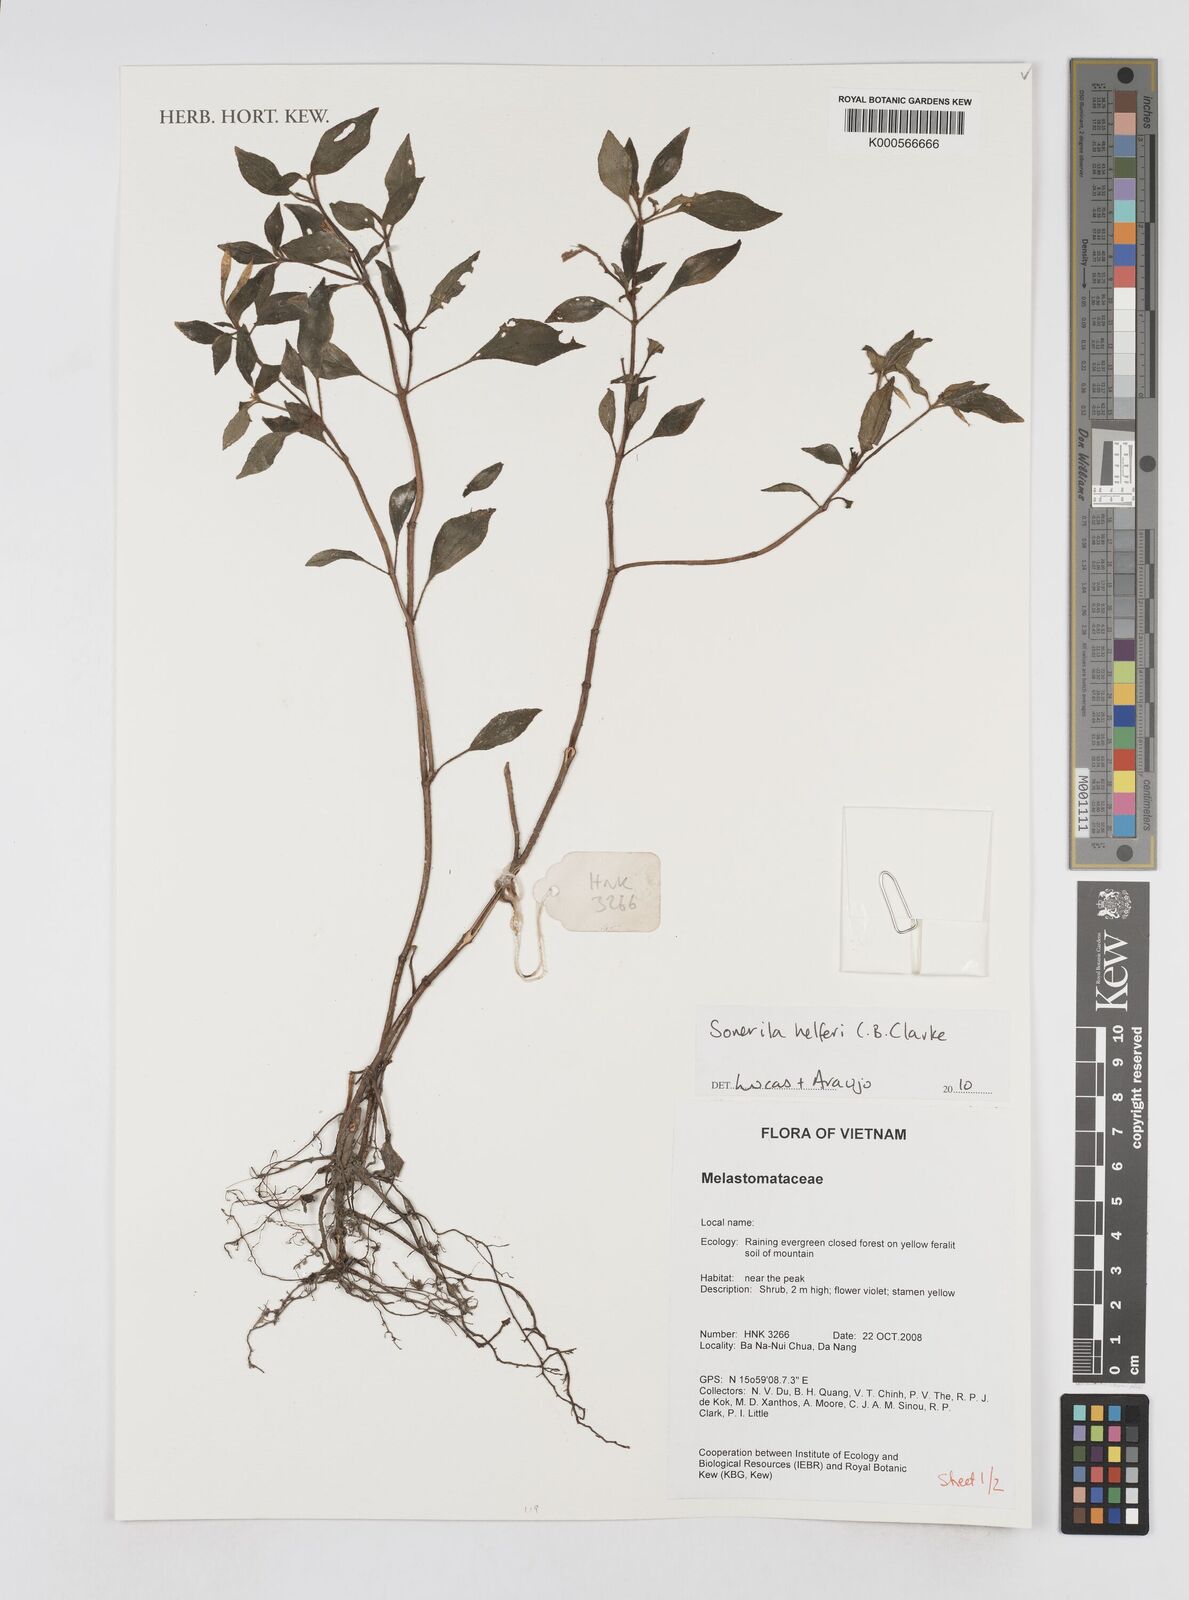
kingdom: Plantae
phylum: Tracheophyta
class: Magnoliopsida
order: Myrtales
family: Melastomataceae
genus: Sonerila
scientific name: Sonerila helferi
